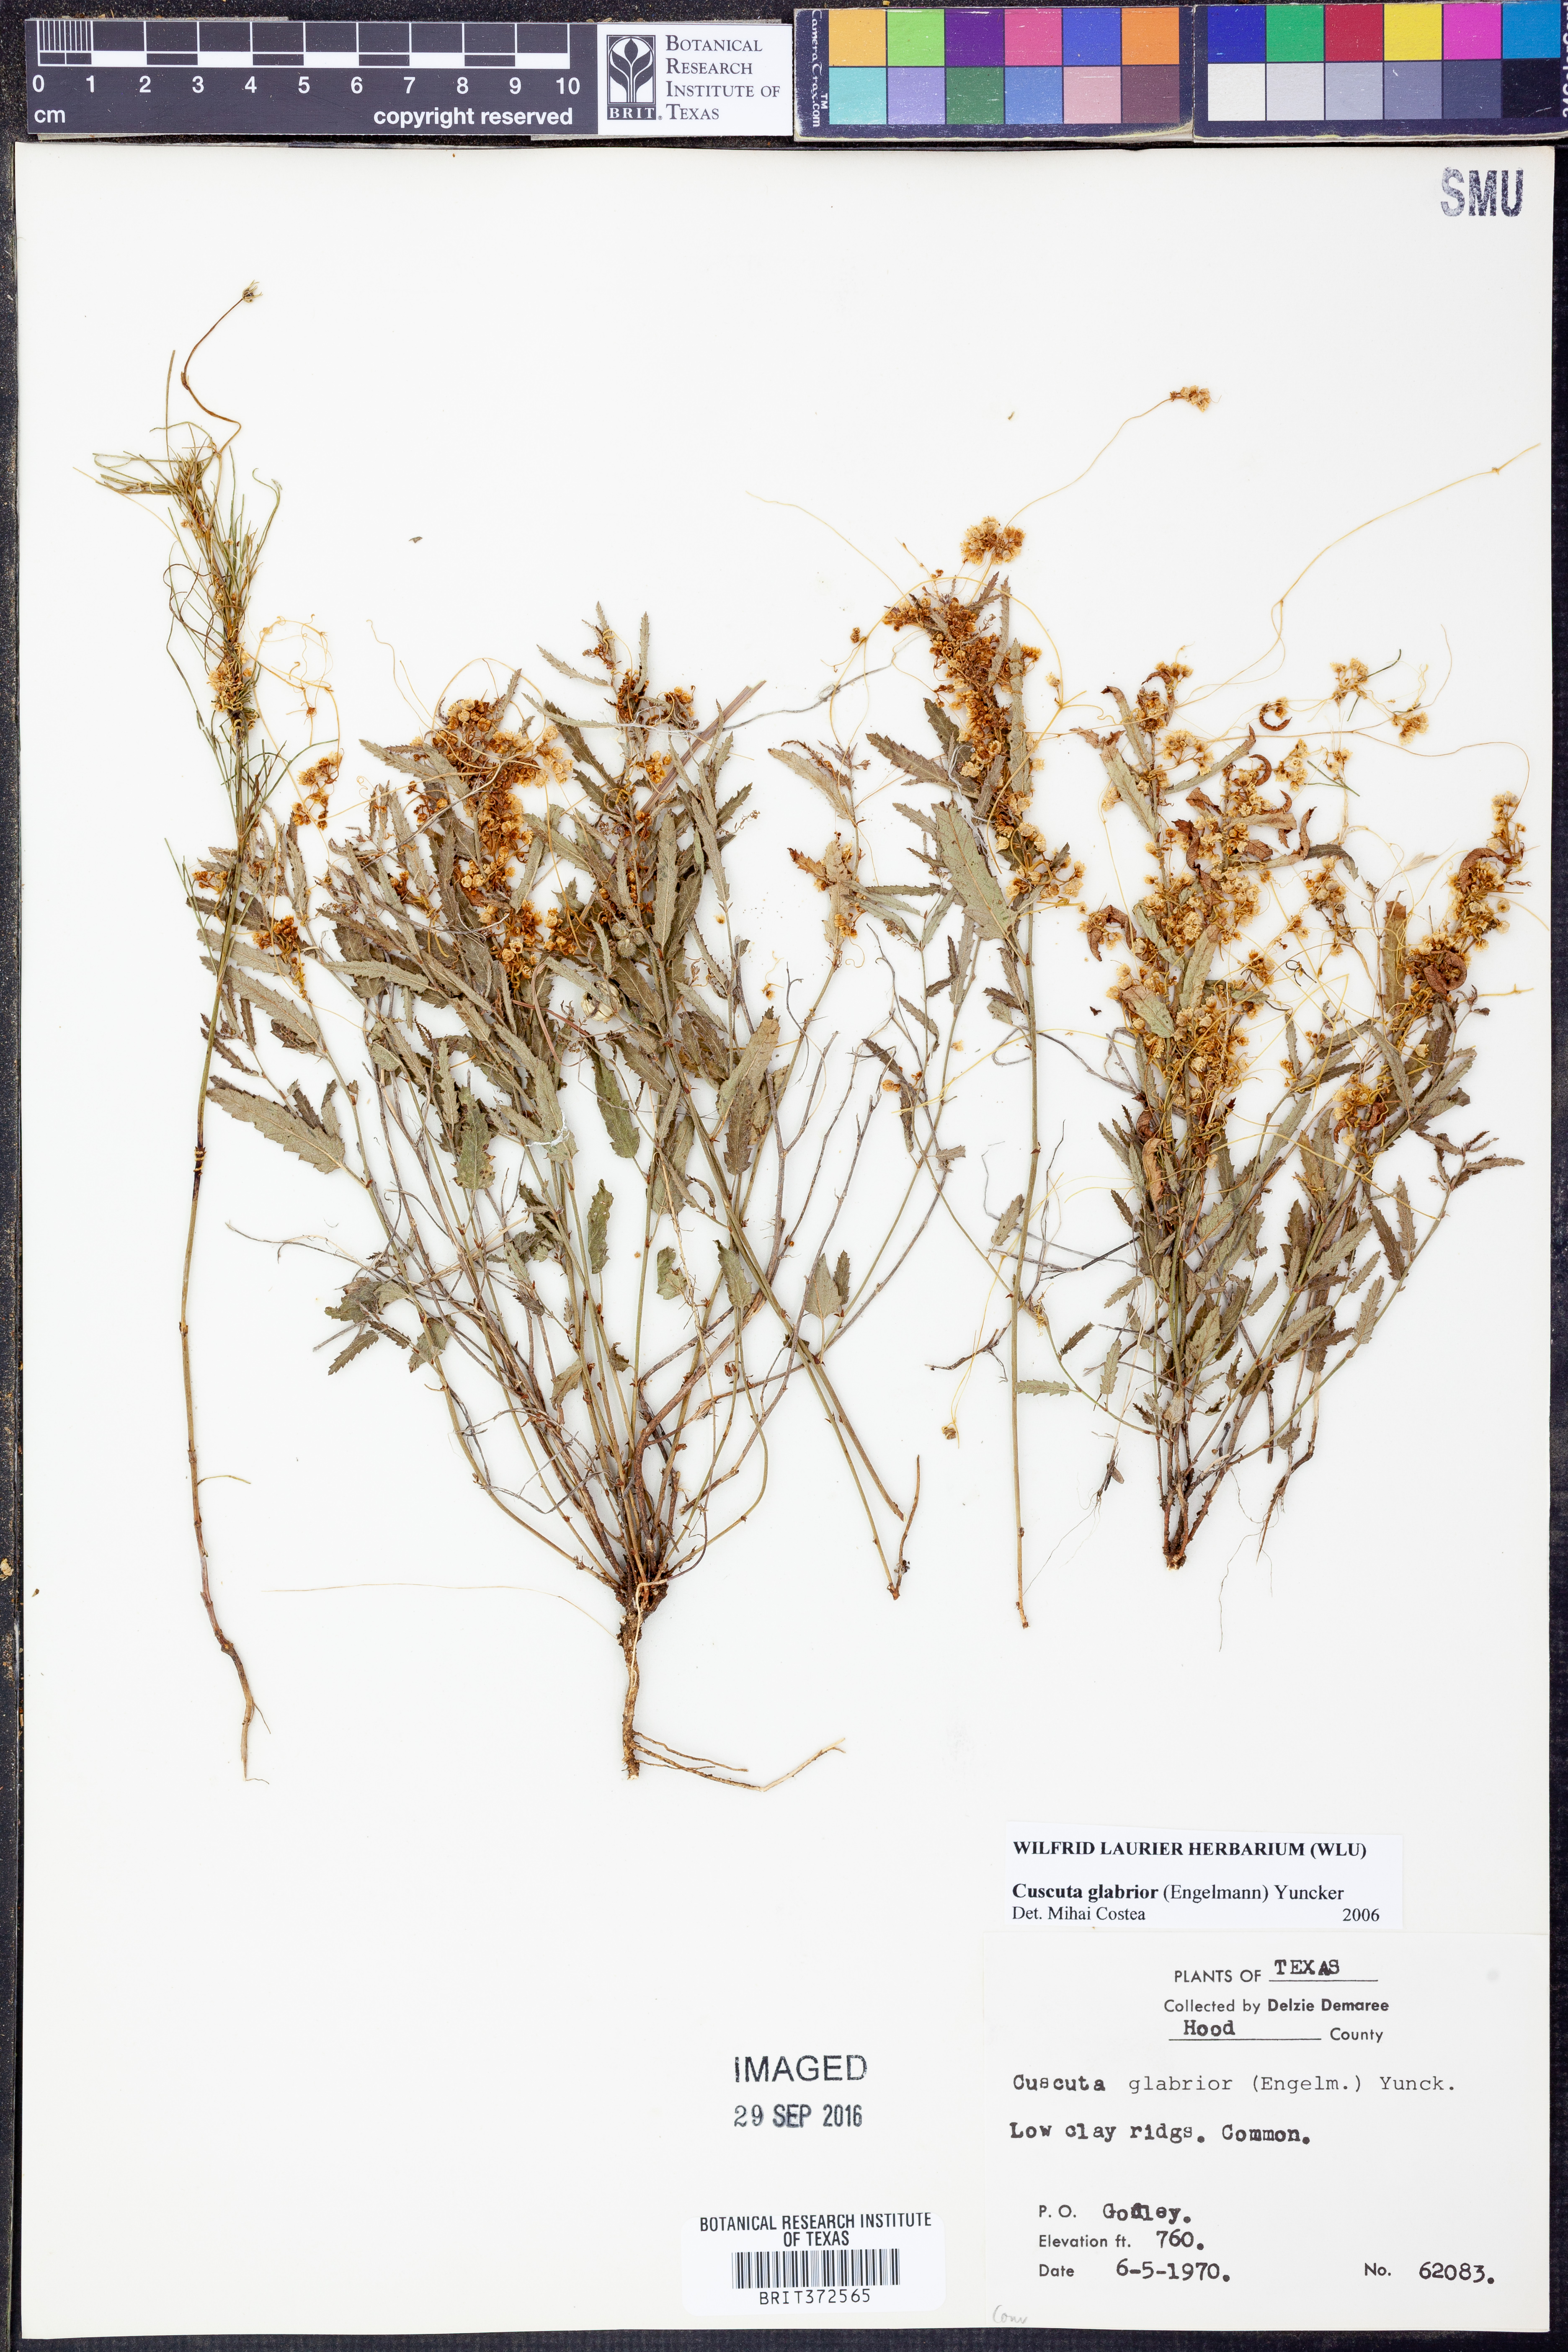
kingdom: Plantae
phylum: Tracheophyta
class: Magnoliopsida
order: Solanales
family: Convolvulaceae
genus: Cuscuta
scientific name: Cuscuta glabrior
